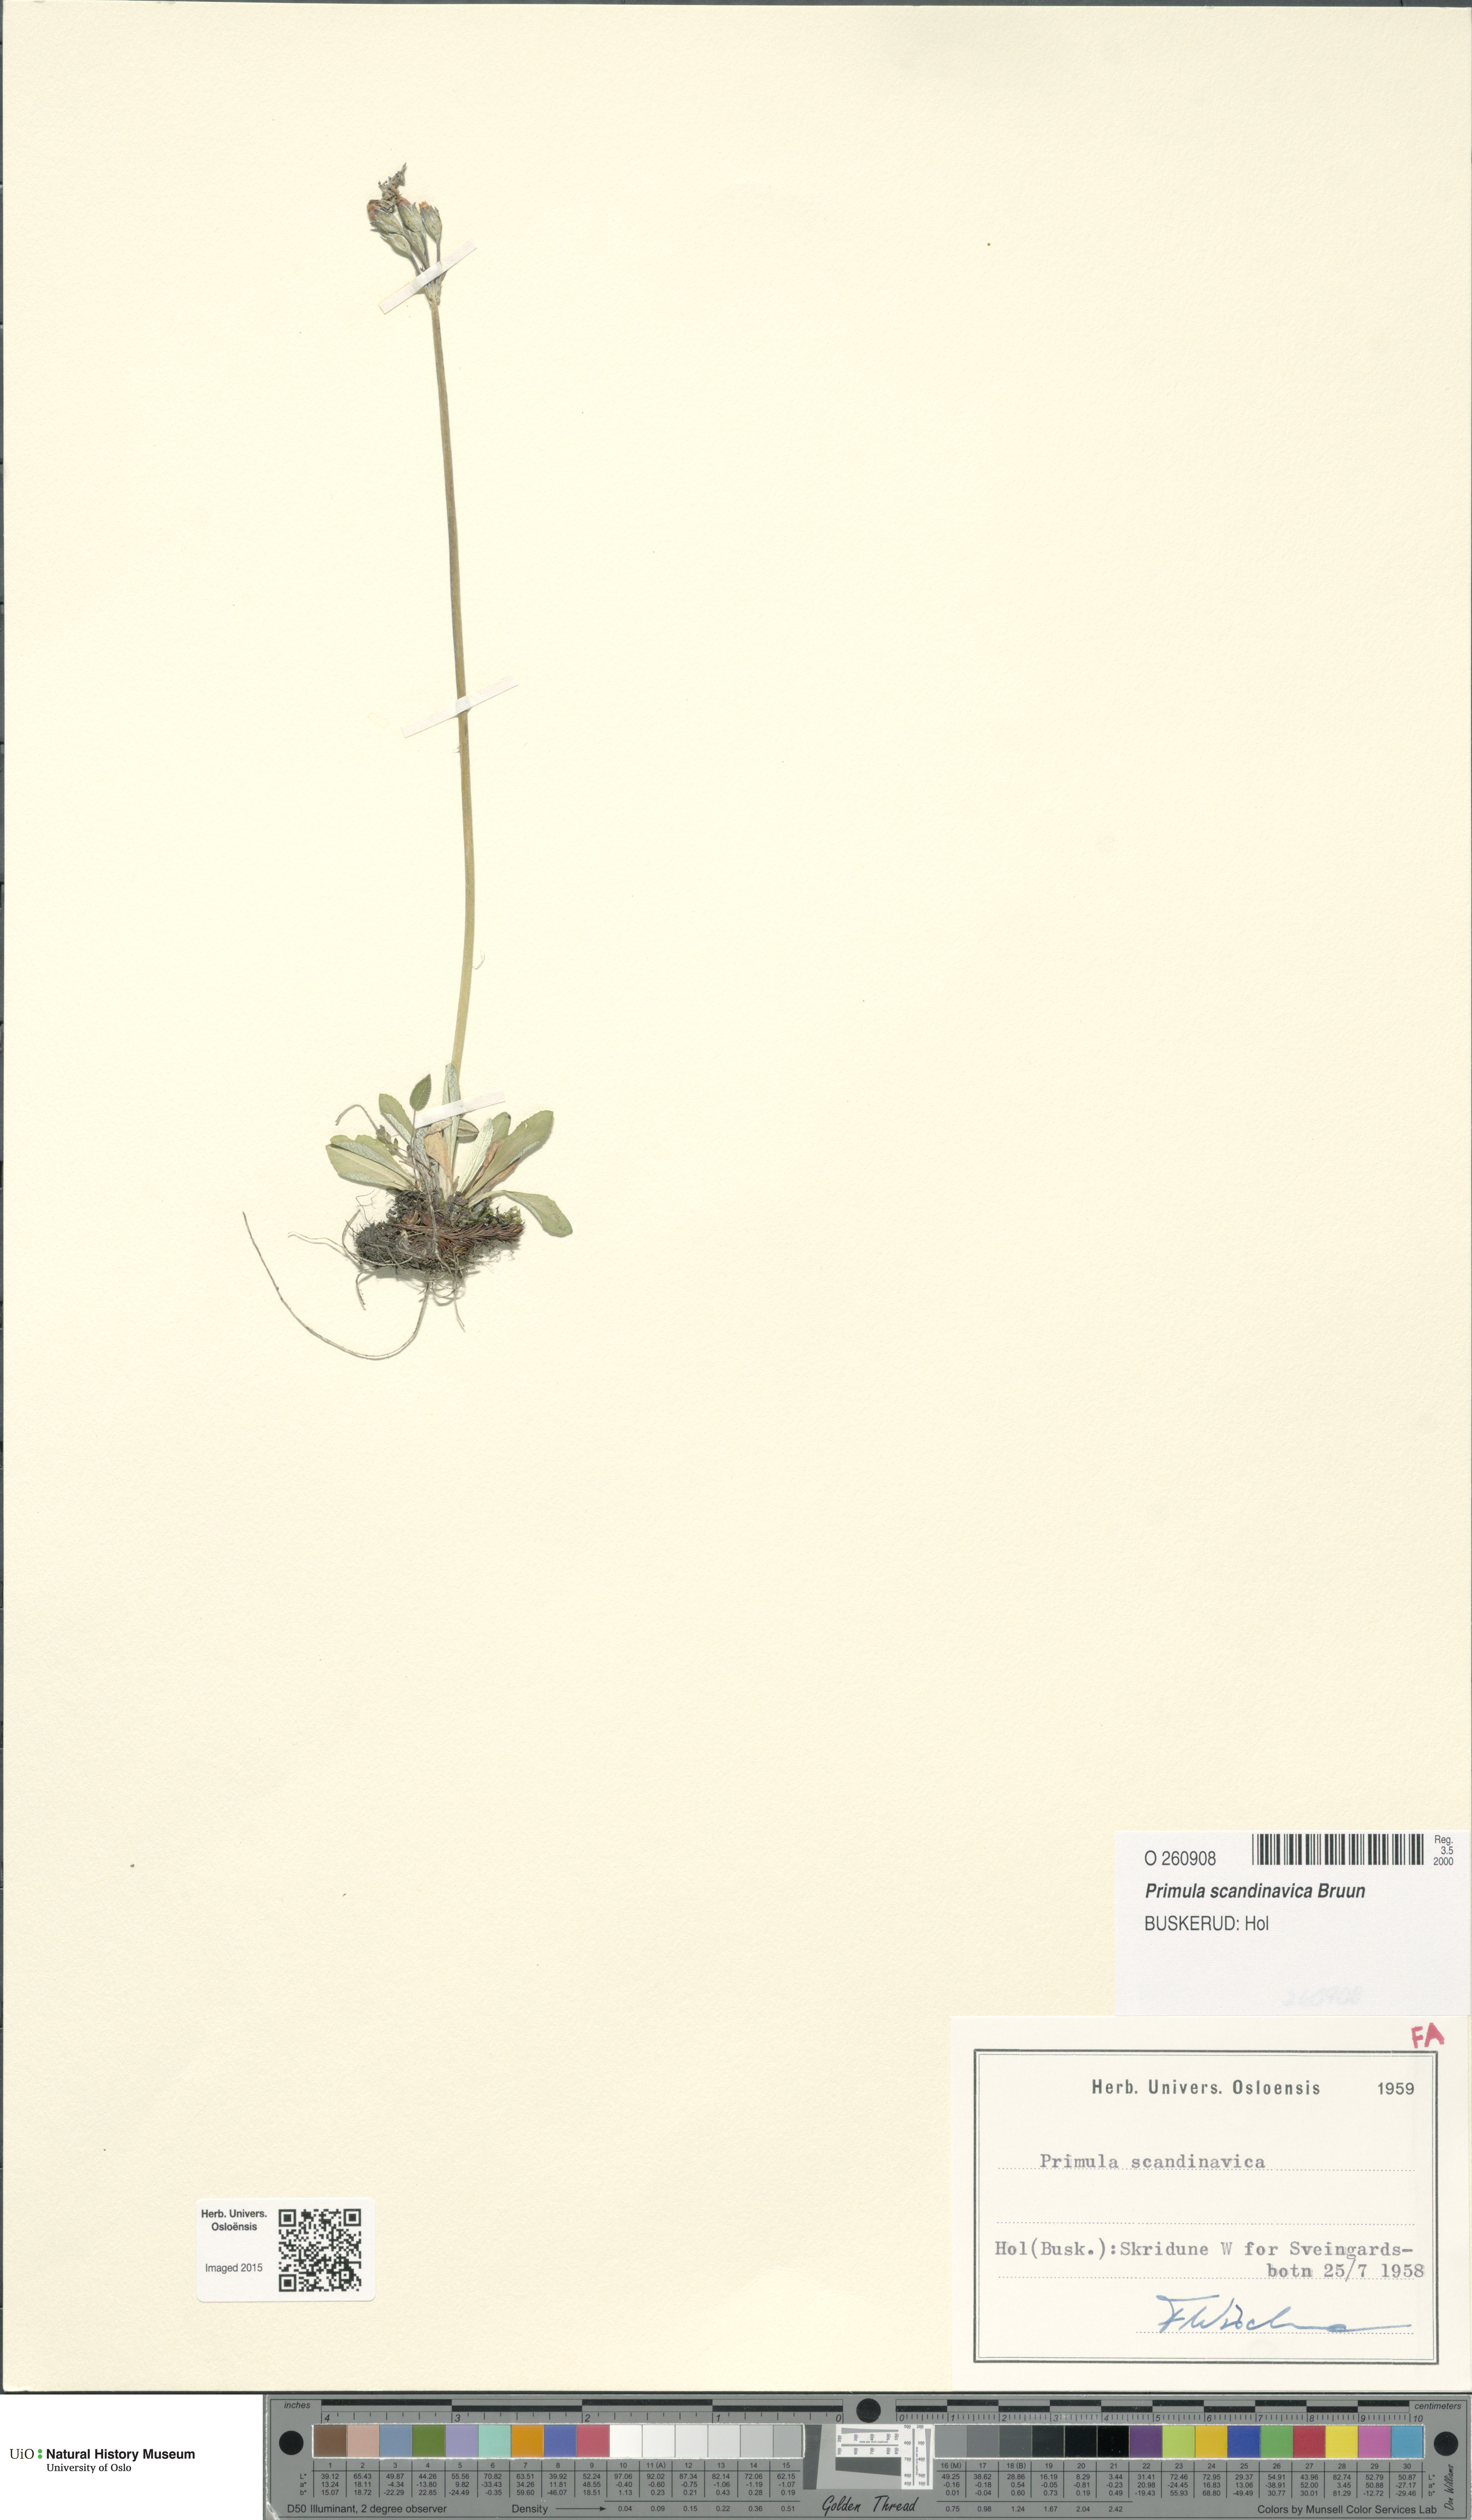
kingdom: Plantae
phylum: Tracheophyta
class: Magnoliopsida
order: Ericales
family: Primulaceae
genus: Primula
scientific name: Primula scandinavica
